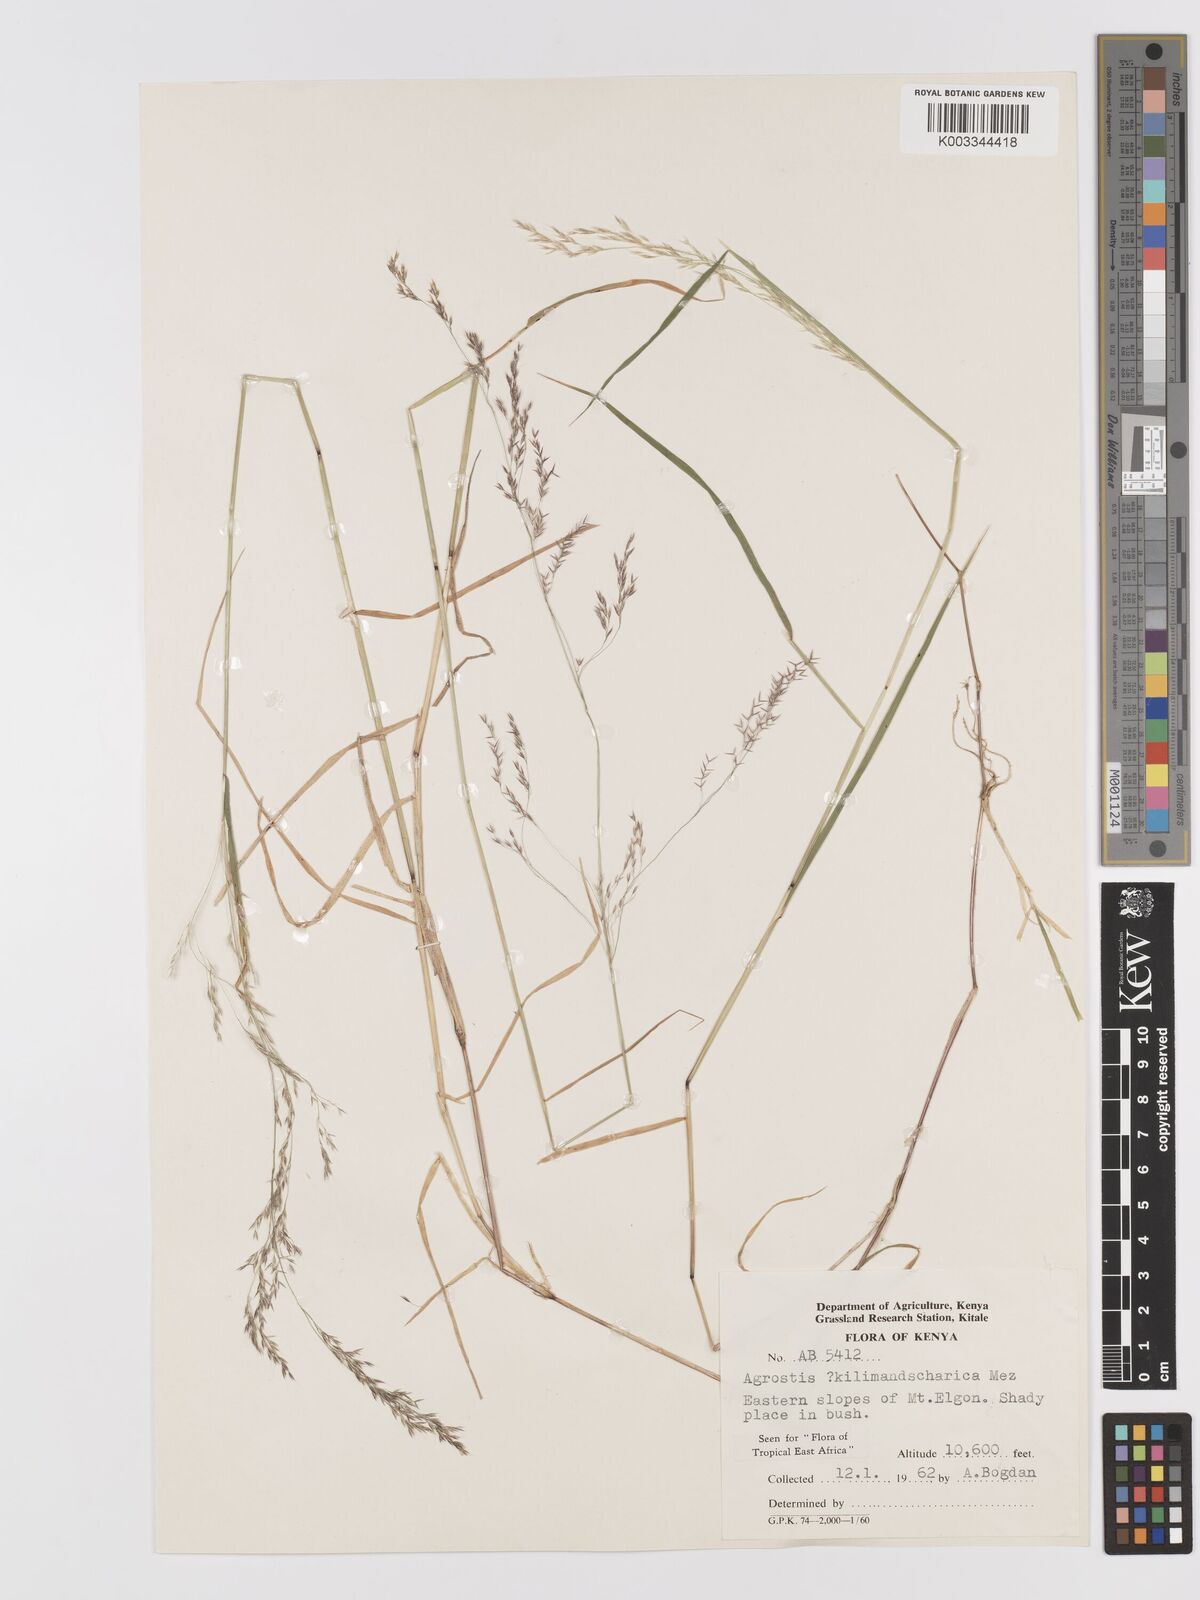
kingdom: Plantae
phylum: Tracheophyta
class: Liliopsida
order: Poales
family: Poaceae
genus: Agrostis
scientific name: Agrostis kilimandscharica
